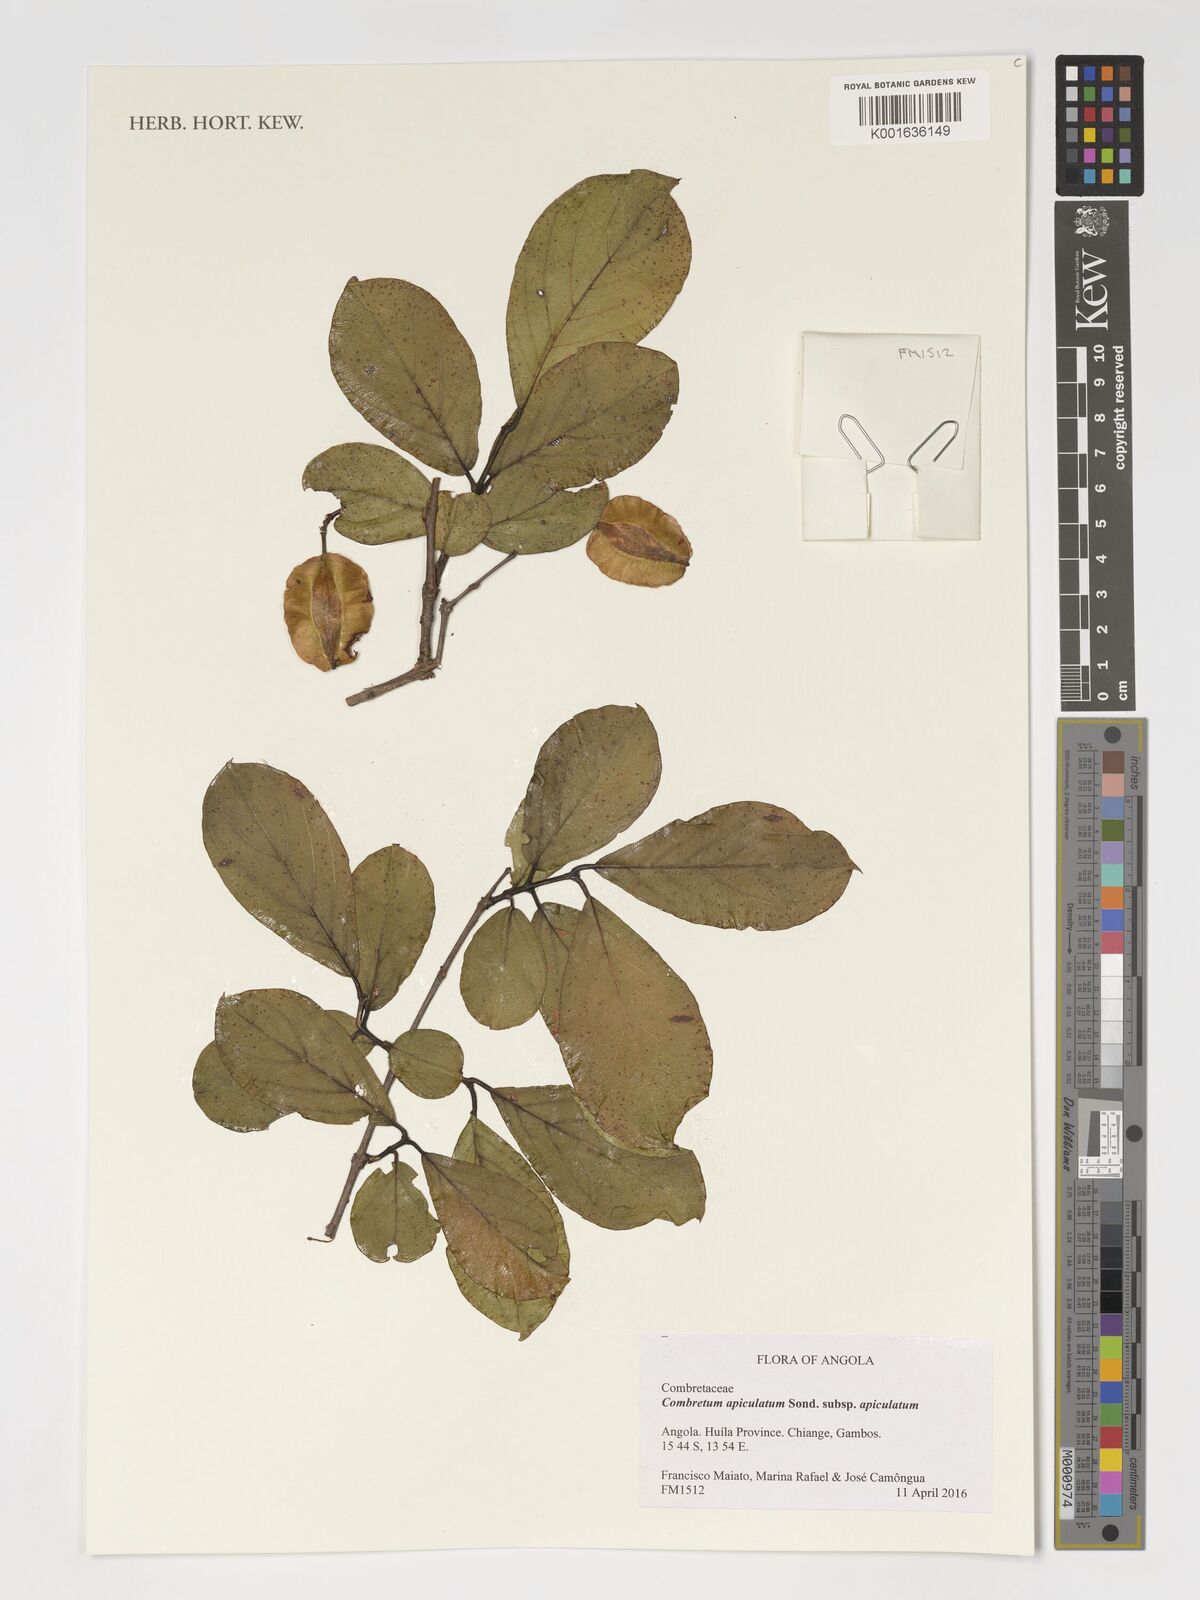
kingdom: Plantae
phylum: Tracheophyta
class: Magnoliopsida
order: Myrtales
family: Combretaceae
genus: Combretum
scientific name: Combretum apiculatum
